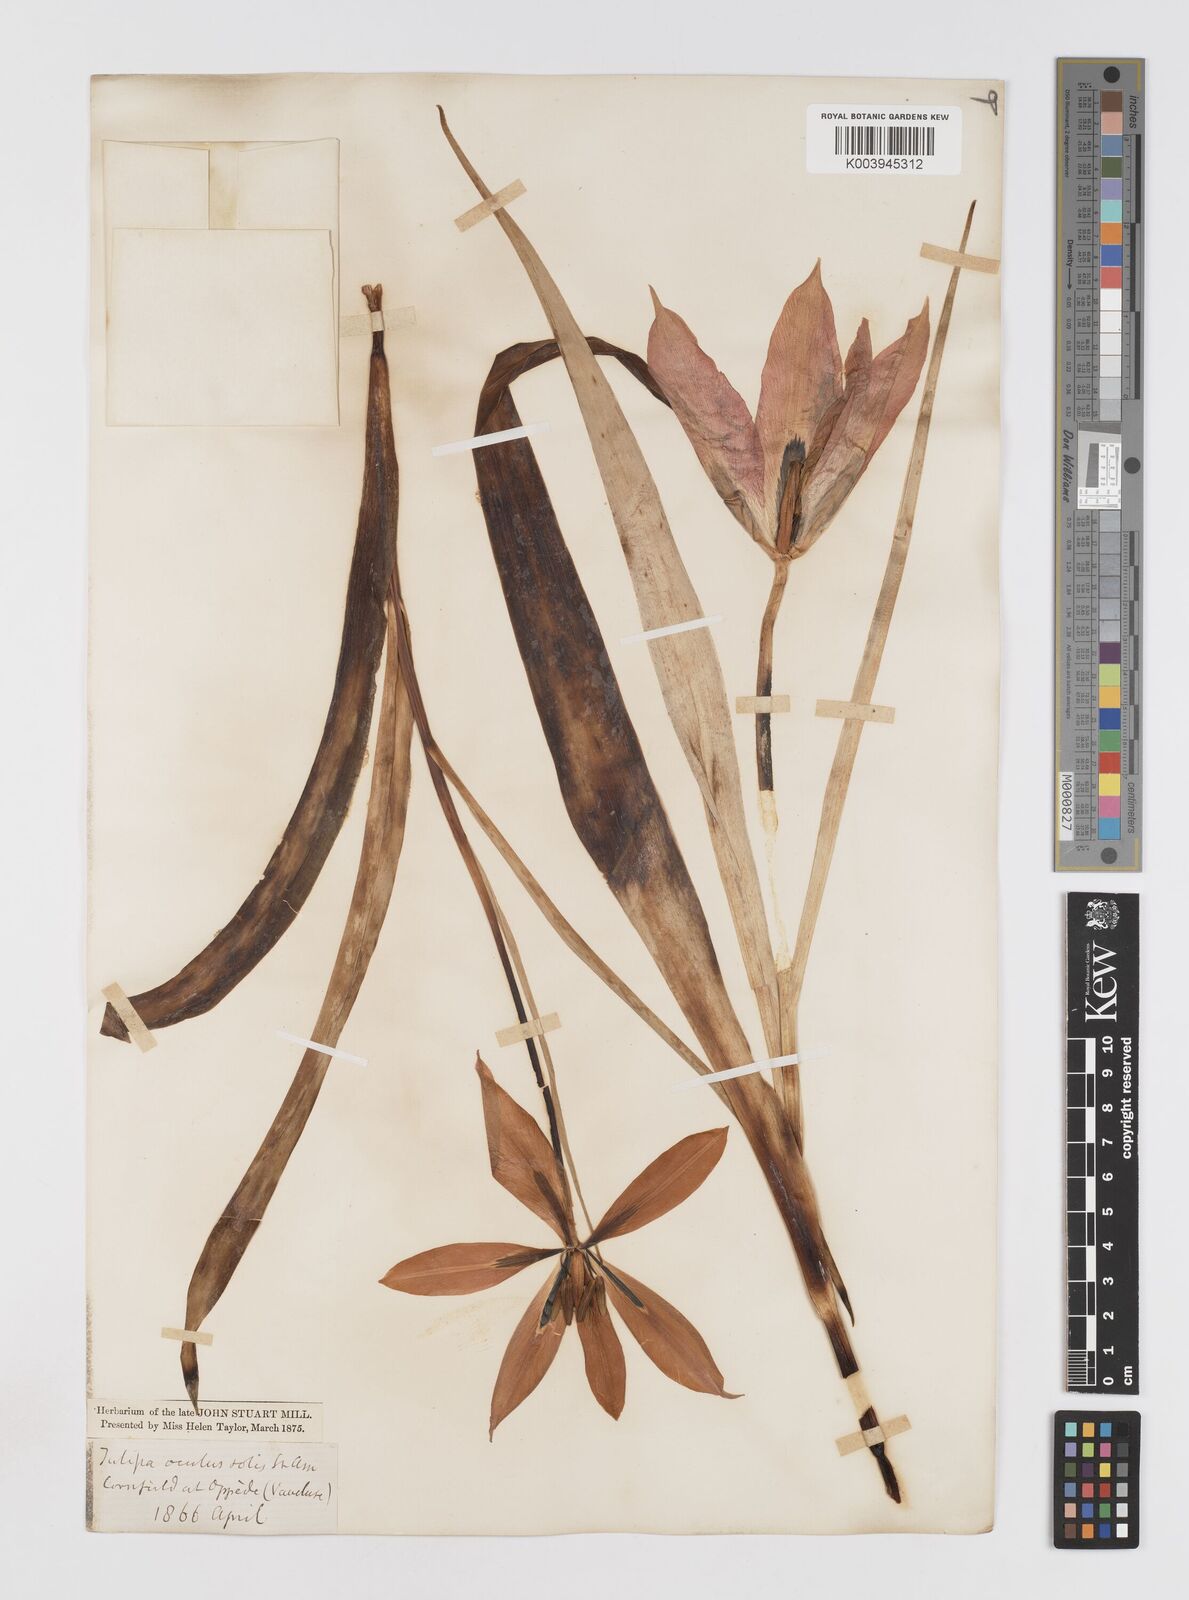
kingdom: Plantae
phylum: Tracheophyta
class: Liliopsida
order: Liliales
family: Liliaceae
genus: Tulipa
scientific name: Tulipa agenensis
